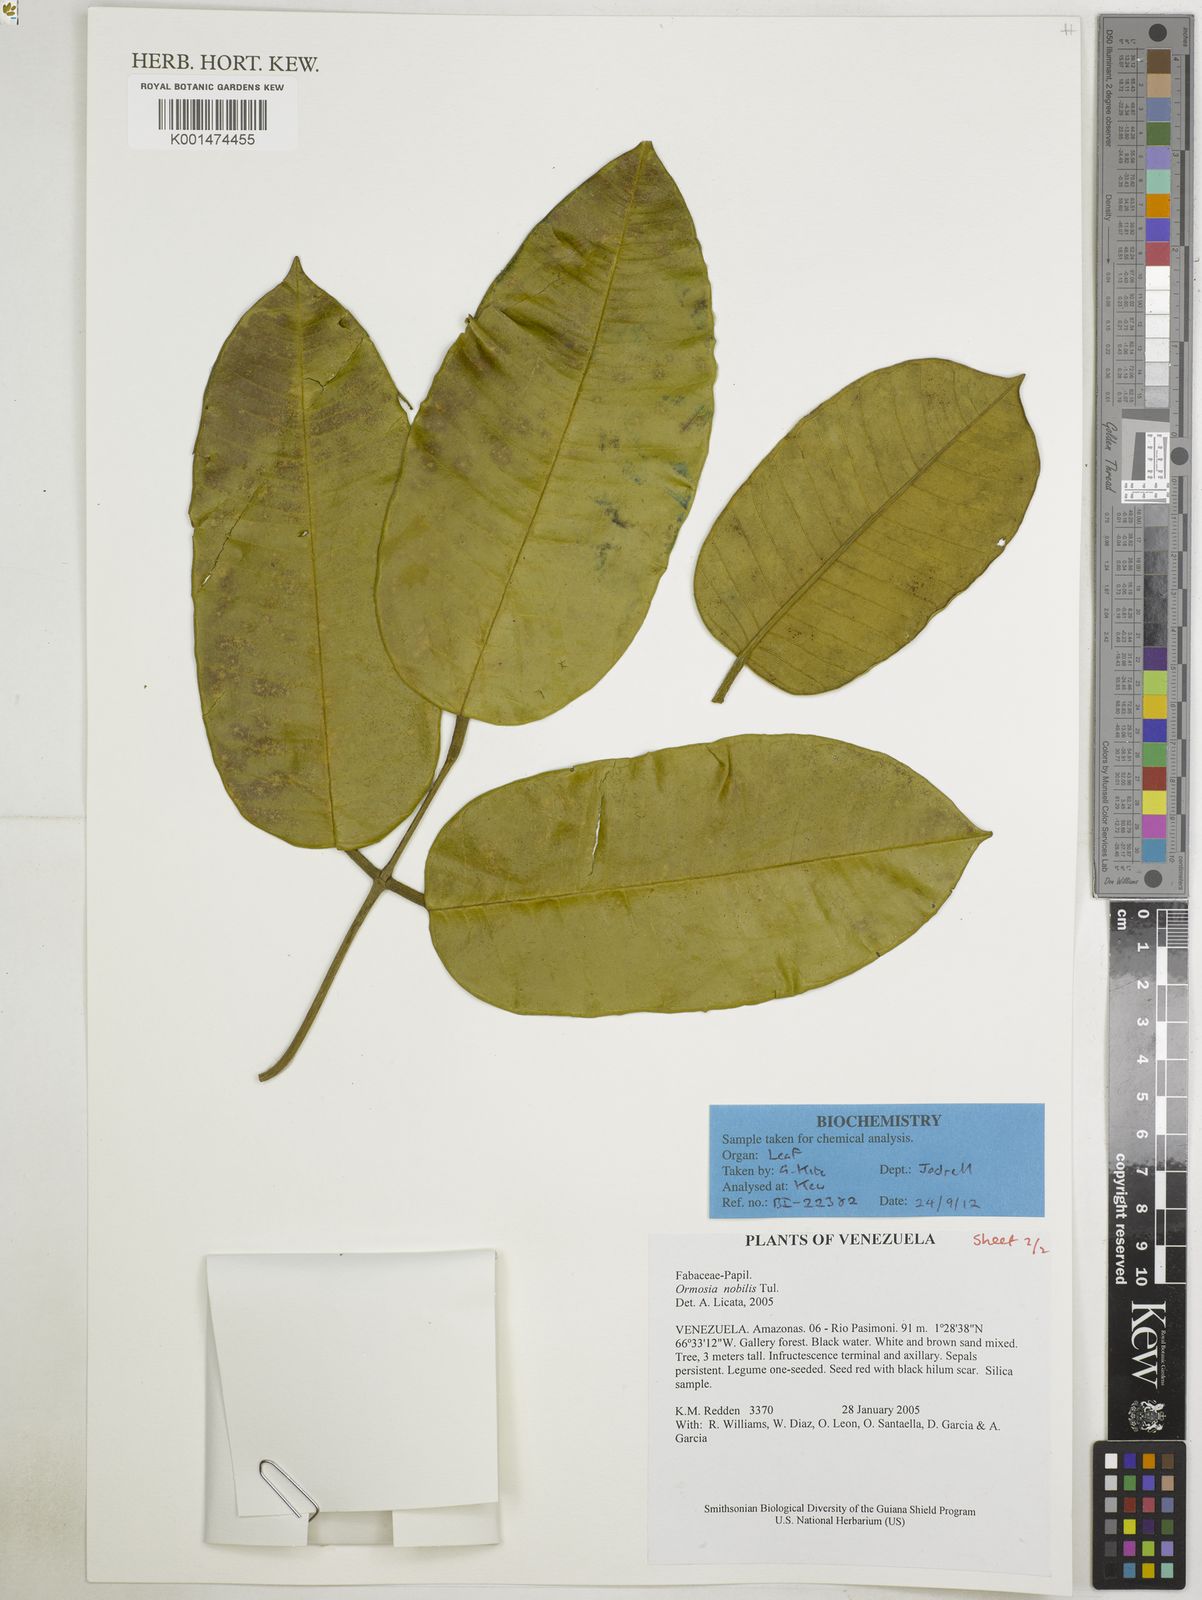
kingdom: Plantae
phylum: Tracheophyta
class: Magnoliopsida
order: Fabales
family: Fabaceae
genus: Ormosia
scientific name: Ormosia nobilis
